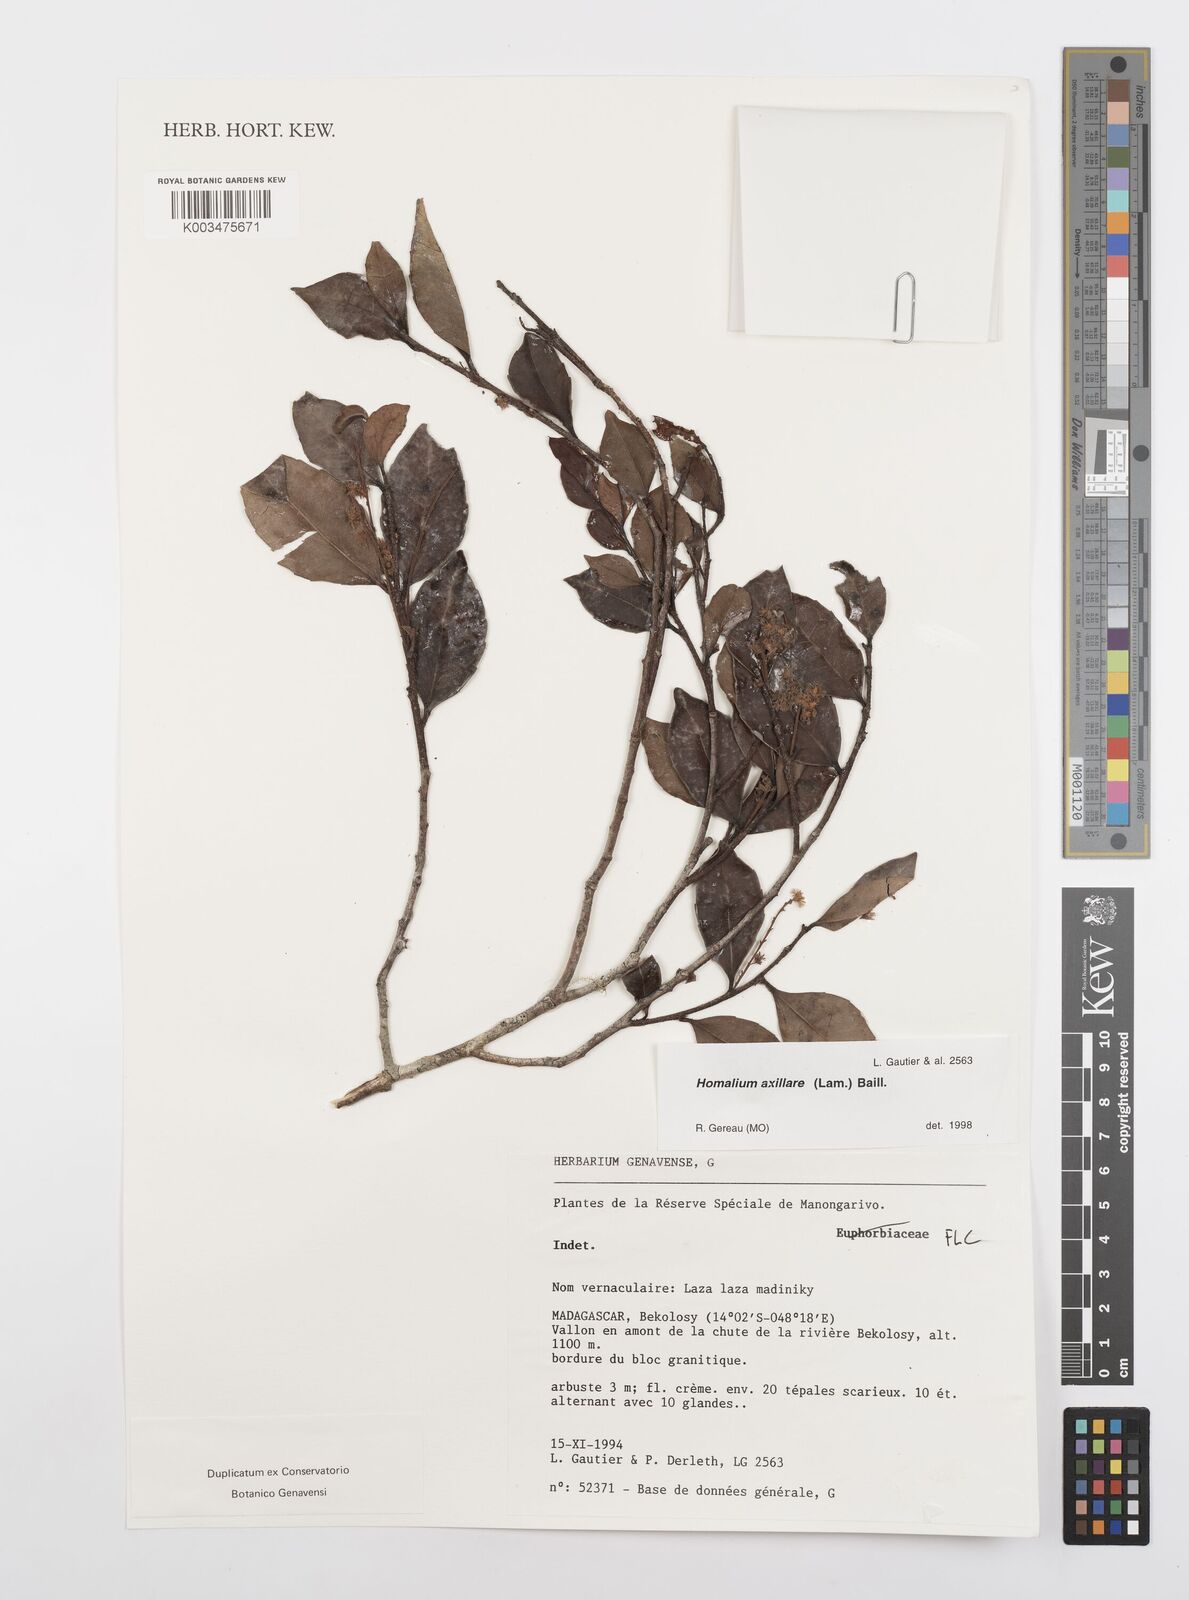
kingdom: Plantae
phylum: Tracheophyta
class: Magnoliopsida
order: Malpighiales
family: Salicaceae
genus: Homalium
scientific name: Homalium axillare
